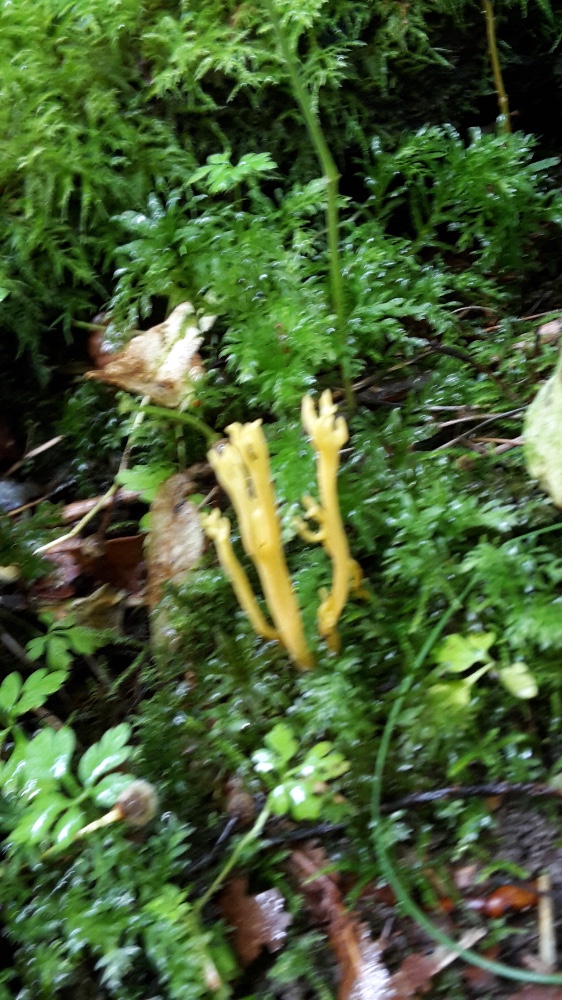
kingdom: Fungi
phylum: Basidiomycota
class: Agaricomycetes
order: Agaricales
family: Clavariaceae
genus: Clavulinopsis
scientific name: Clavulinopsis corniculata
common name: eng-køllesvamp
